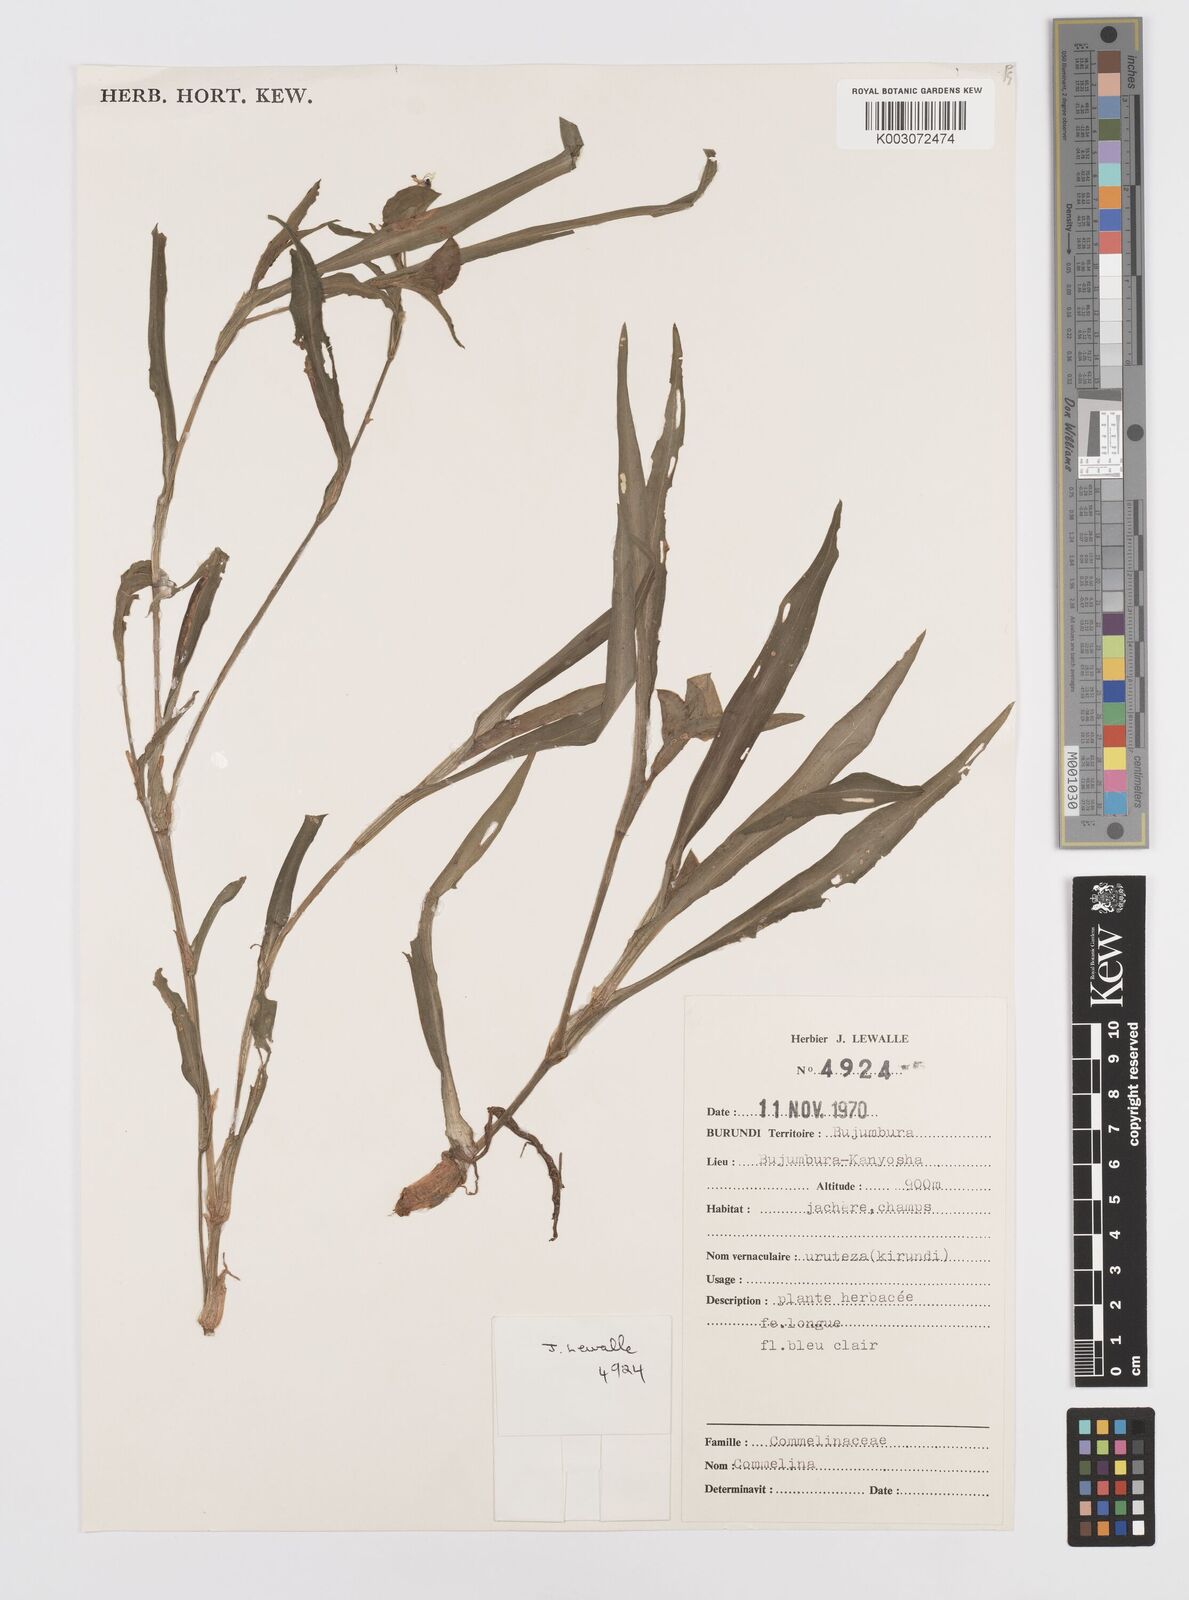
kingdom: Plantae
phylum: Tracheophyta
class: Liliopsida
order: Commelinales
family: Commelinaceae
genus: Commelina
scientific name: Commelina
